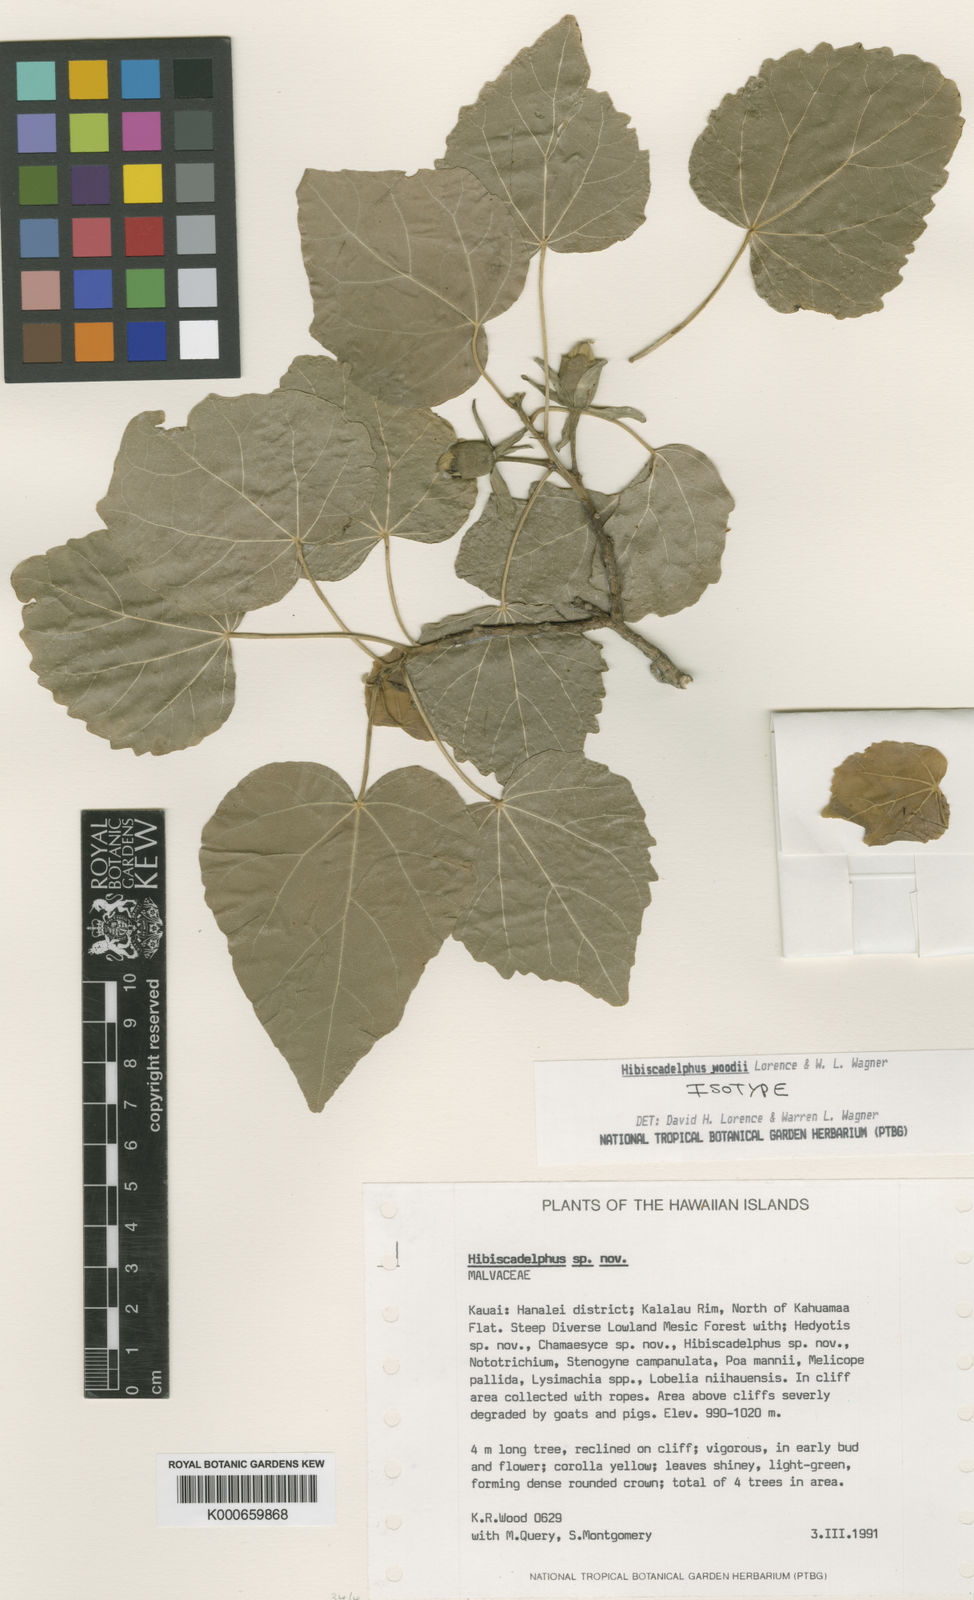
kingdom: Plantae
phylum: Tracheophyta
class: Magnoliopsida
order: Malvales
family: Malvaceae
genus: Hibiscadelphus
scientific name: Hibiscadelphus woodii
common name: Wood's hibiscadelphus
